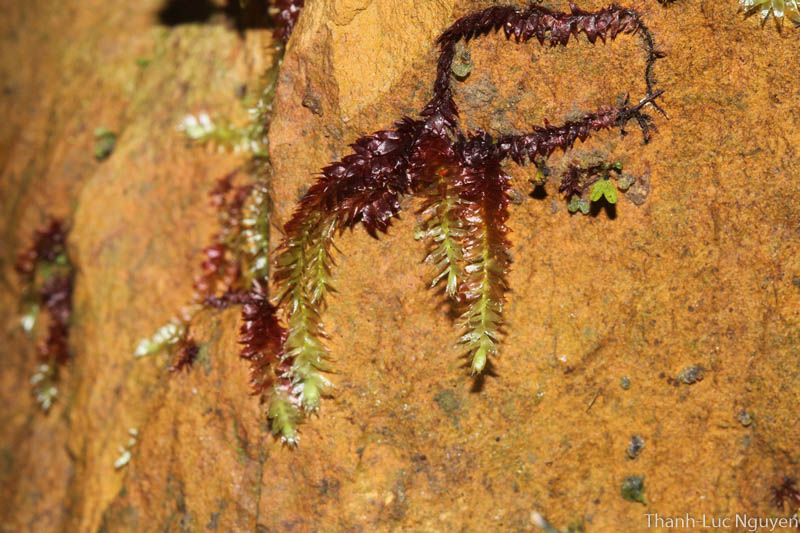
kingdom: Plantae
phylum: Bryophyta
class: Bryopsida
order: Hypnales
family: Plagiotheciaceae
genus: Pseudotaxiphyllum
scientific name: Pseudotaxiphyllum
